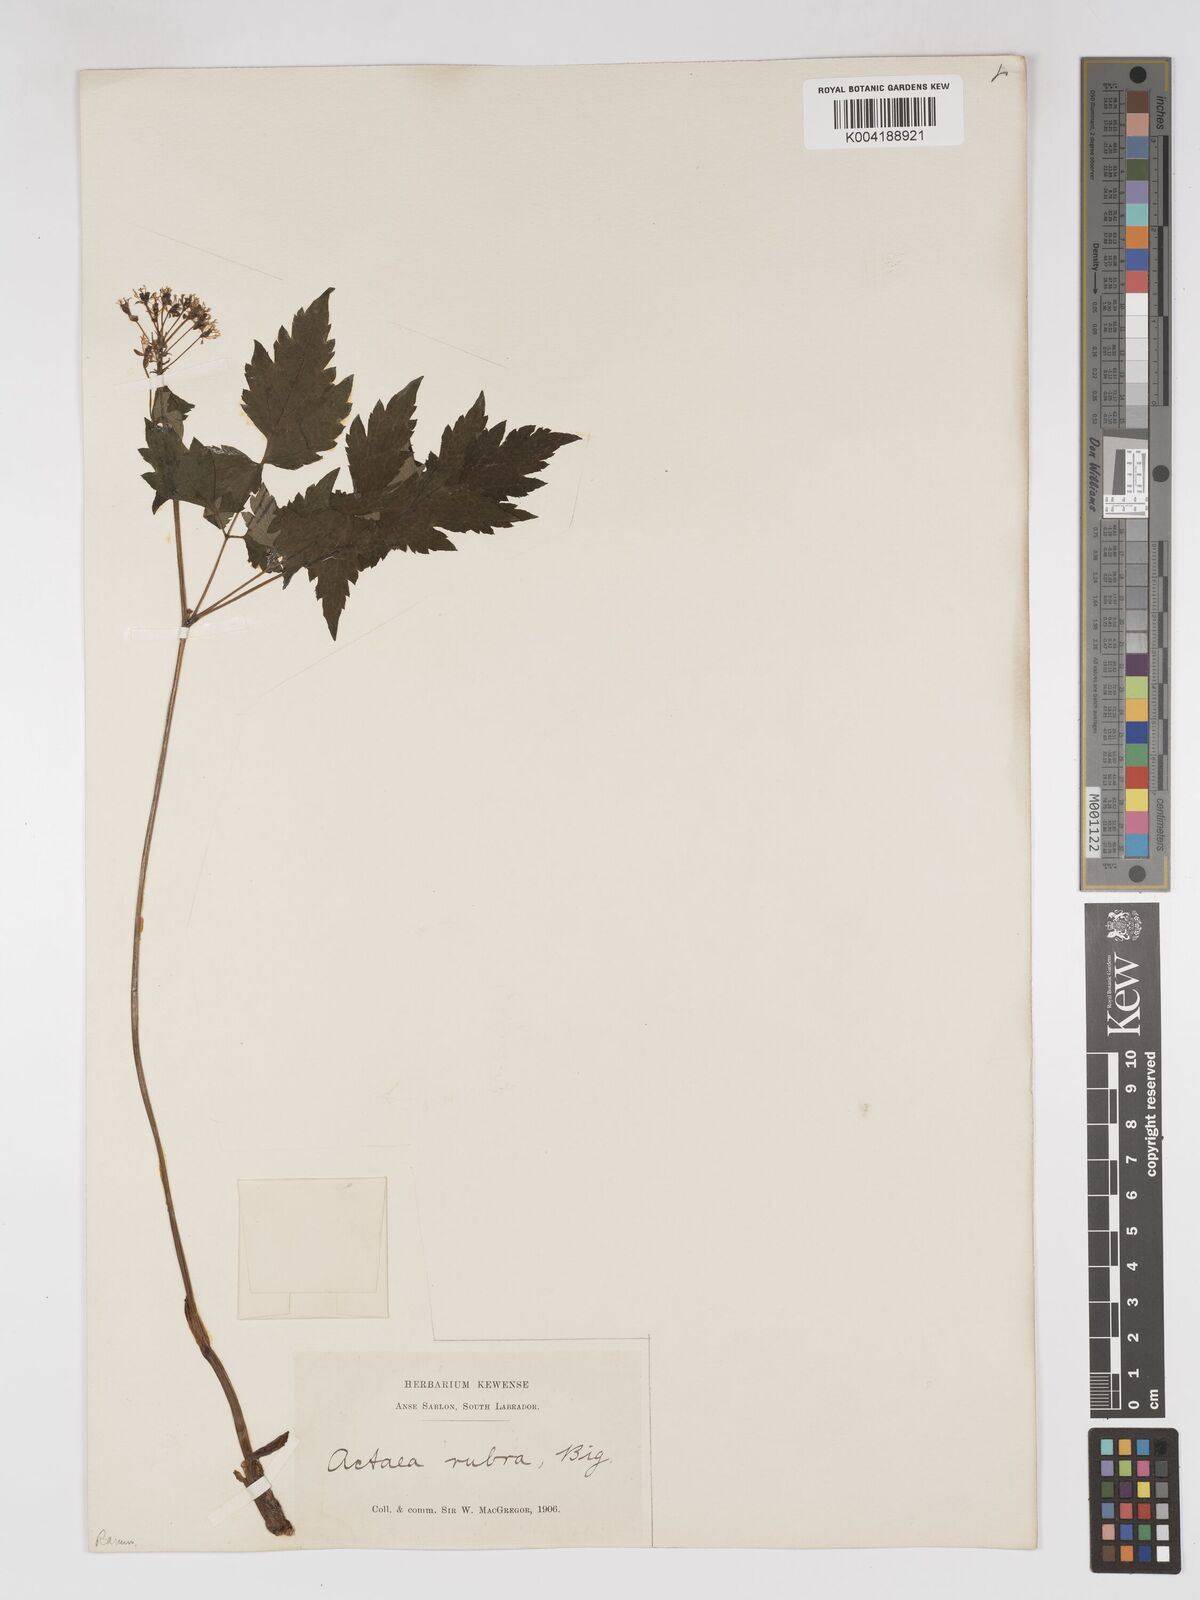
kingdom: Plantae
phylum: Tracheophyta
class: Magnoliopsida
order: Ranunculales
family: Ranunculaceae
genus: Actaea
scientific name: Actaea rubra
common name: Red baneberry
